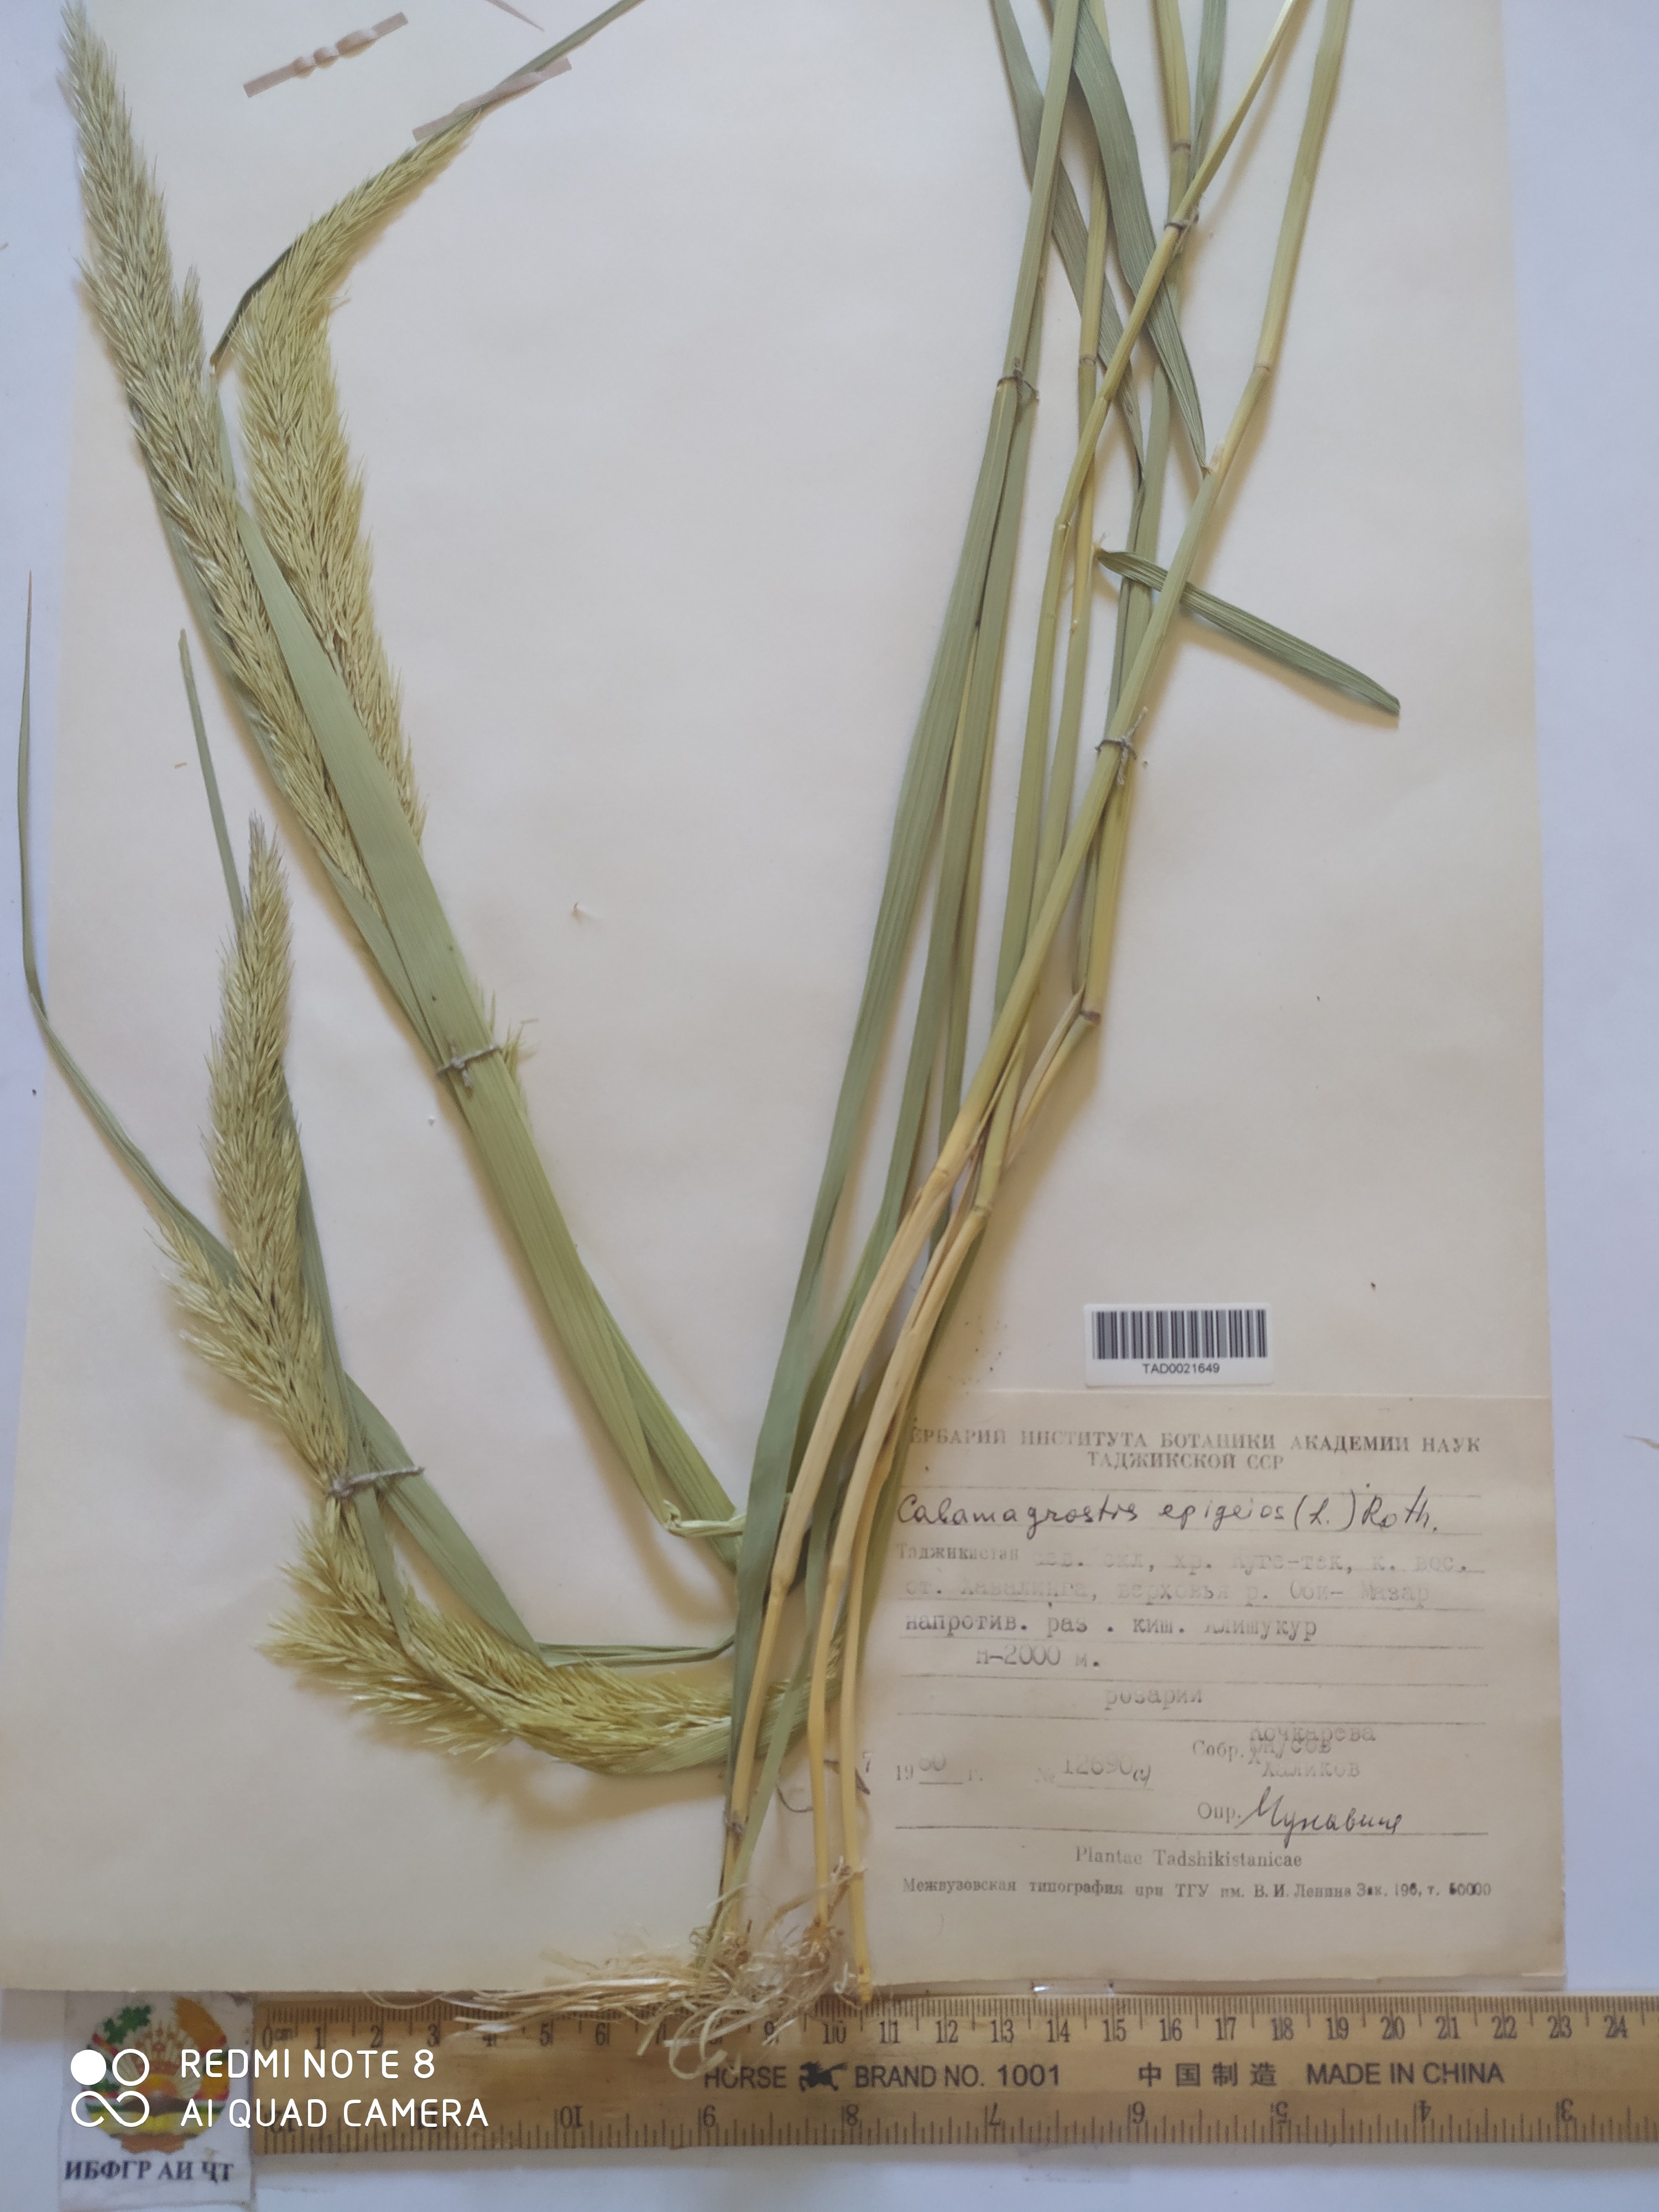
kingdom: Plantae
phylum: Tracheophyta
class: Liliopsida
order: Poales
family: Poaceae
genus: Calamagrostis
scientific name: Calamagrostis epigejos
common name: Wood small-reed
